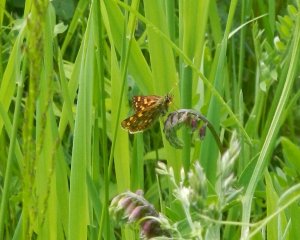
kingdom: Animalia
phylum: Arthropoda
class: Insecta
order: Lepidoptera
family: Hesperiidae
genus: Carterocephalus
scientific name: Carterocephalus palaemon
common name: Chequered Skipper
